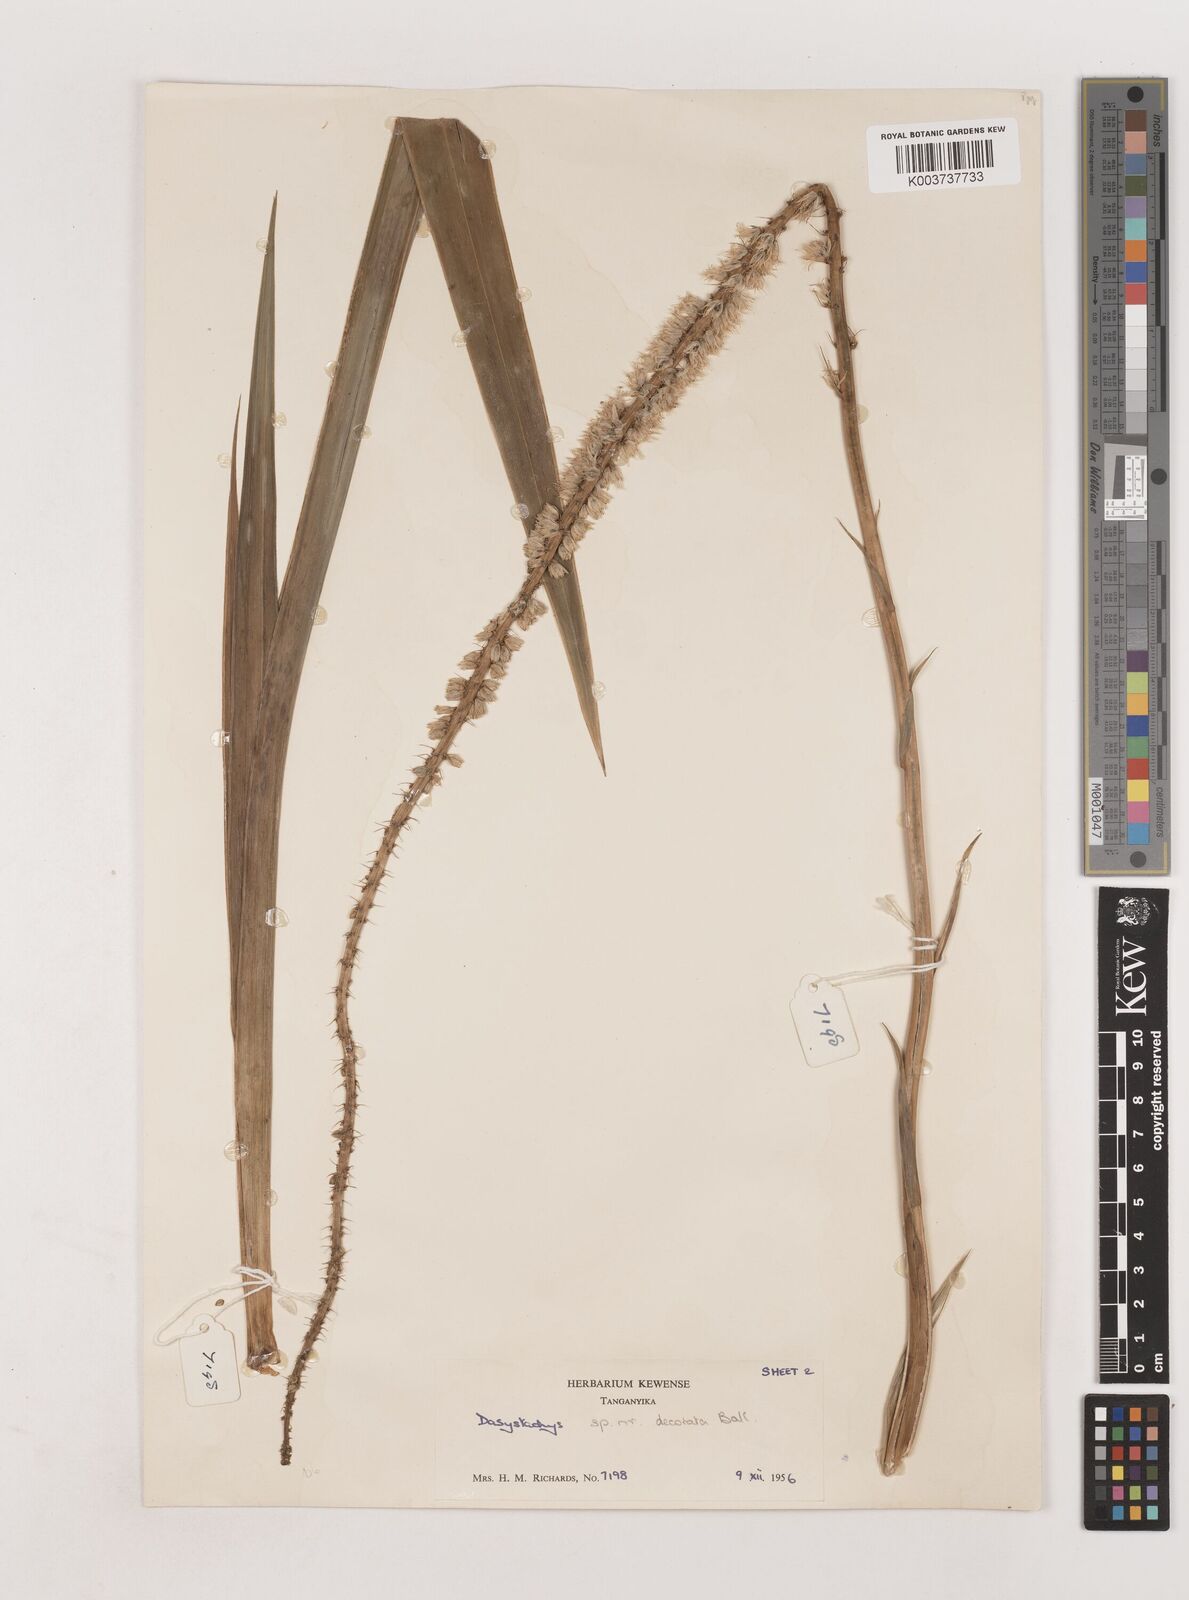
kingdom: Plantae
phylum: Tracheophyta
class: Liliopsida
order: Asparagales
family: Asparagaceae
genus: Chlorophytum
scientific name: Chlorophytum colubrinum
